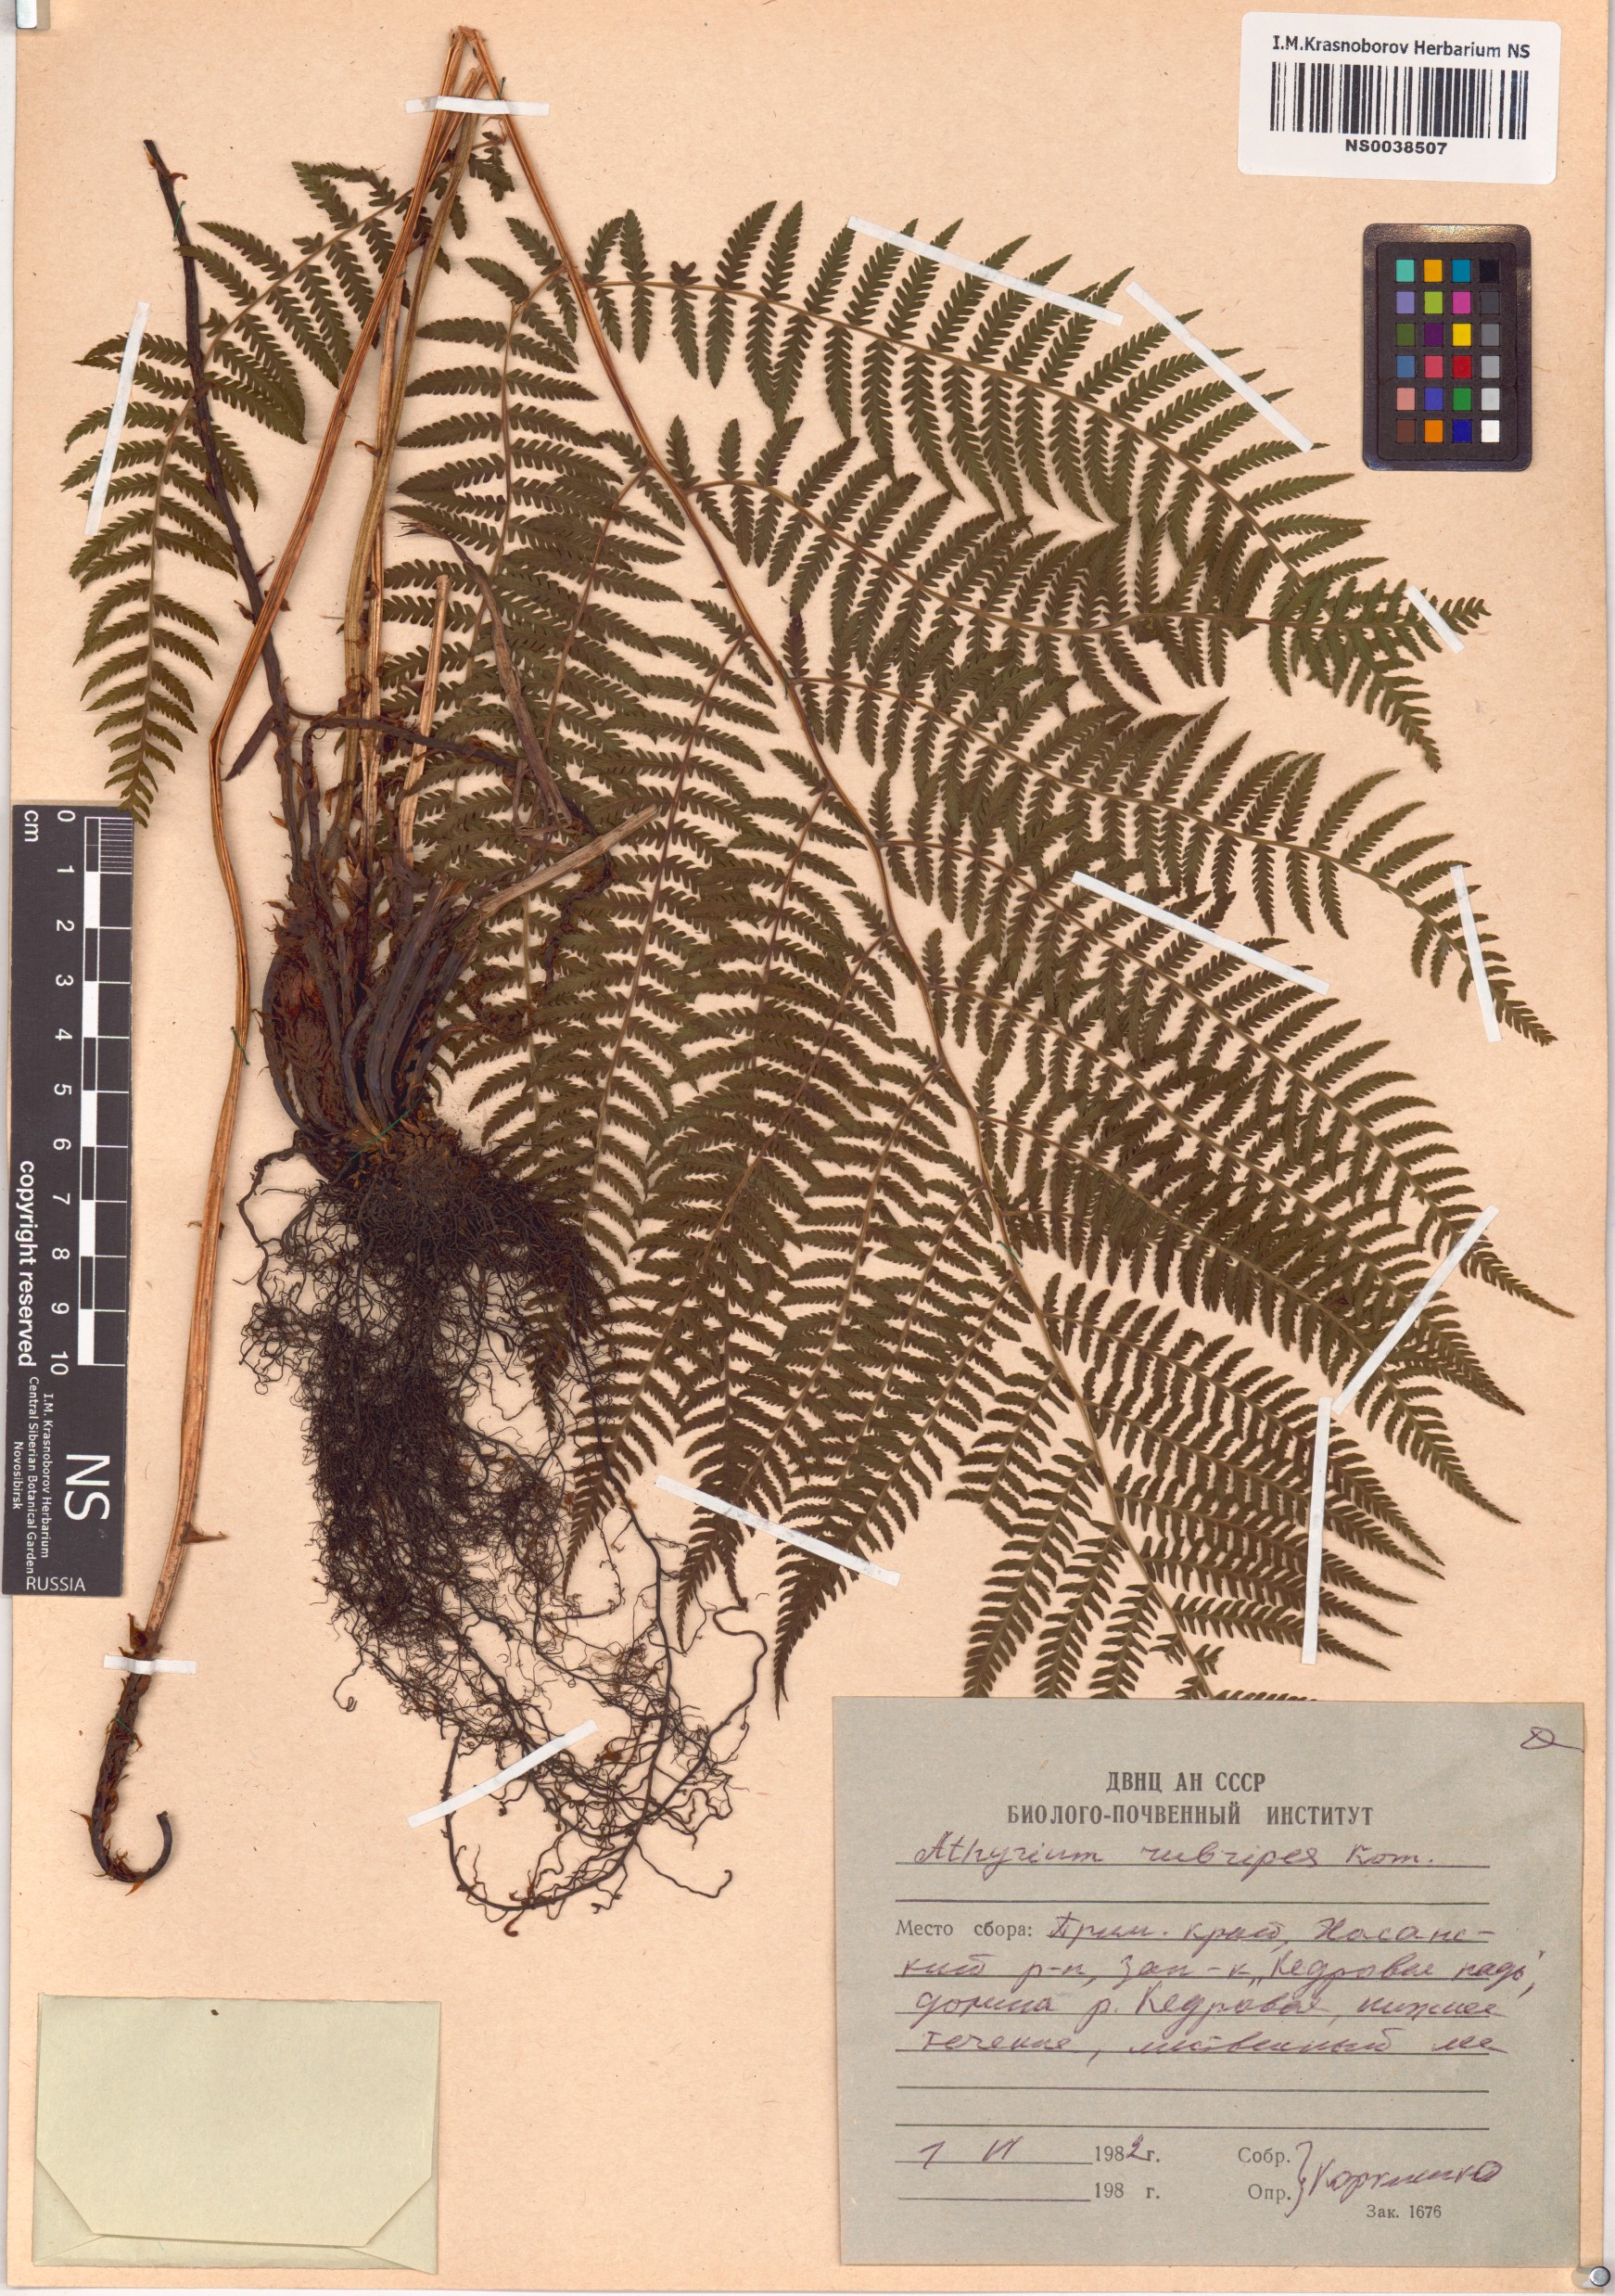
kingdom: Plantae
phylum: Tracheophyta
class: Polypodiopsida
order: Polypodiales
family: Athyriaceae
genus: Athyrium
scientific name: Athyrium rubripes
